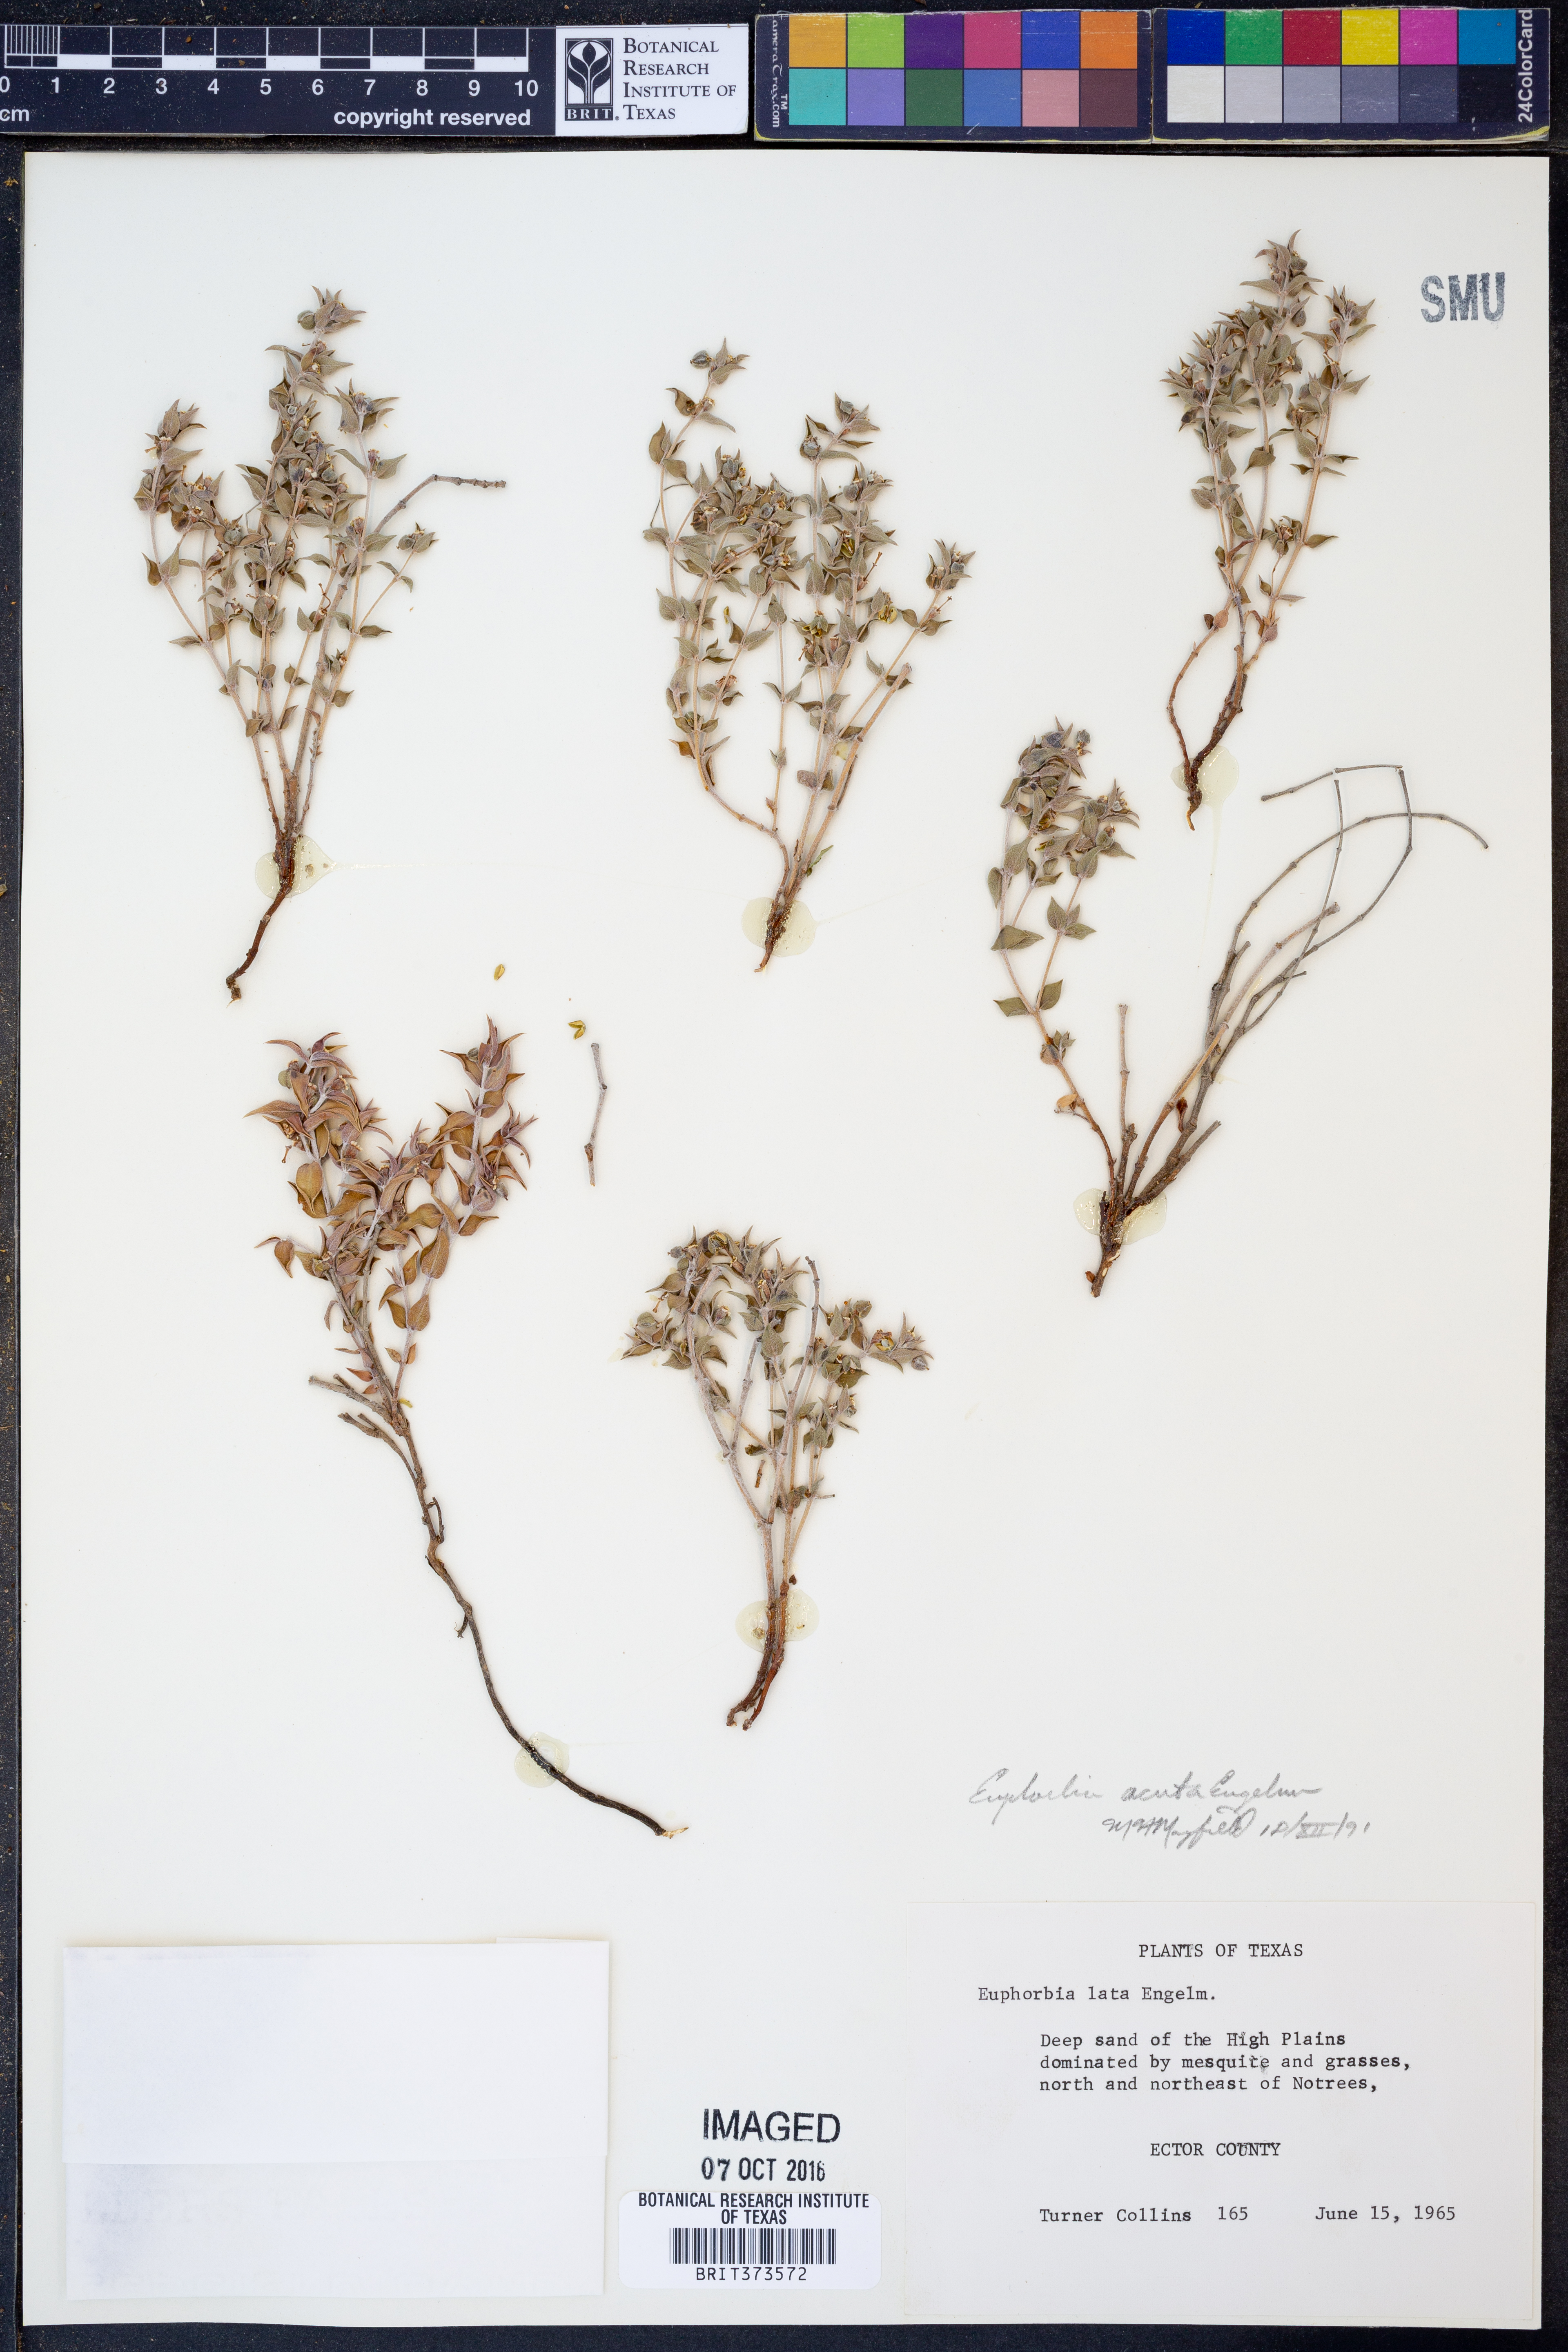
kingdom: Plantae
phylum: Tracheophyta
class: Magnoliopsida
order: Malpighiales
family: Euphorbiaceae
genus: Euphorbia
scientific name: Euphorbia acuta
